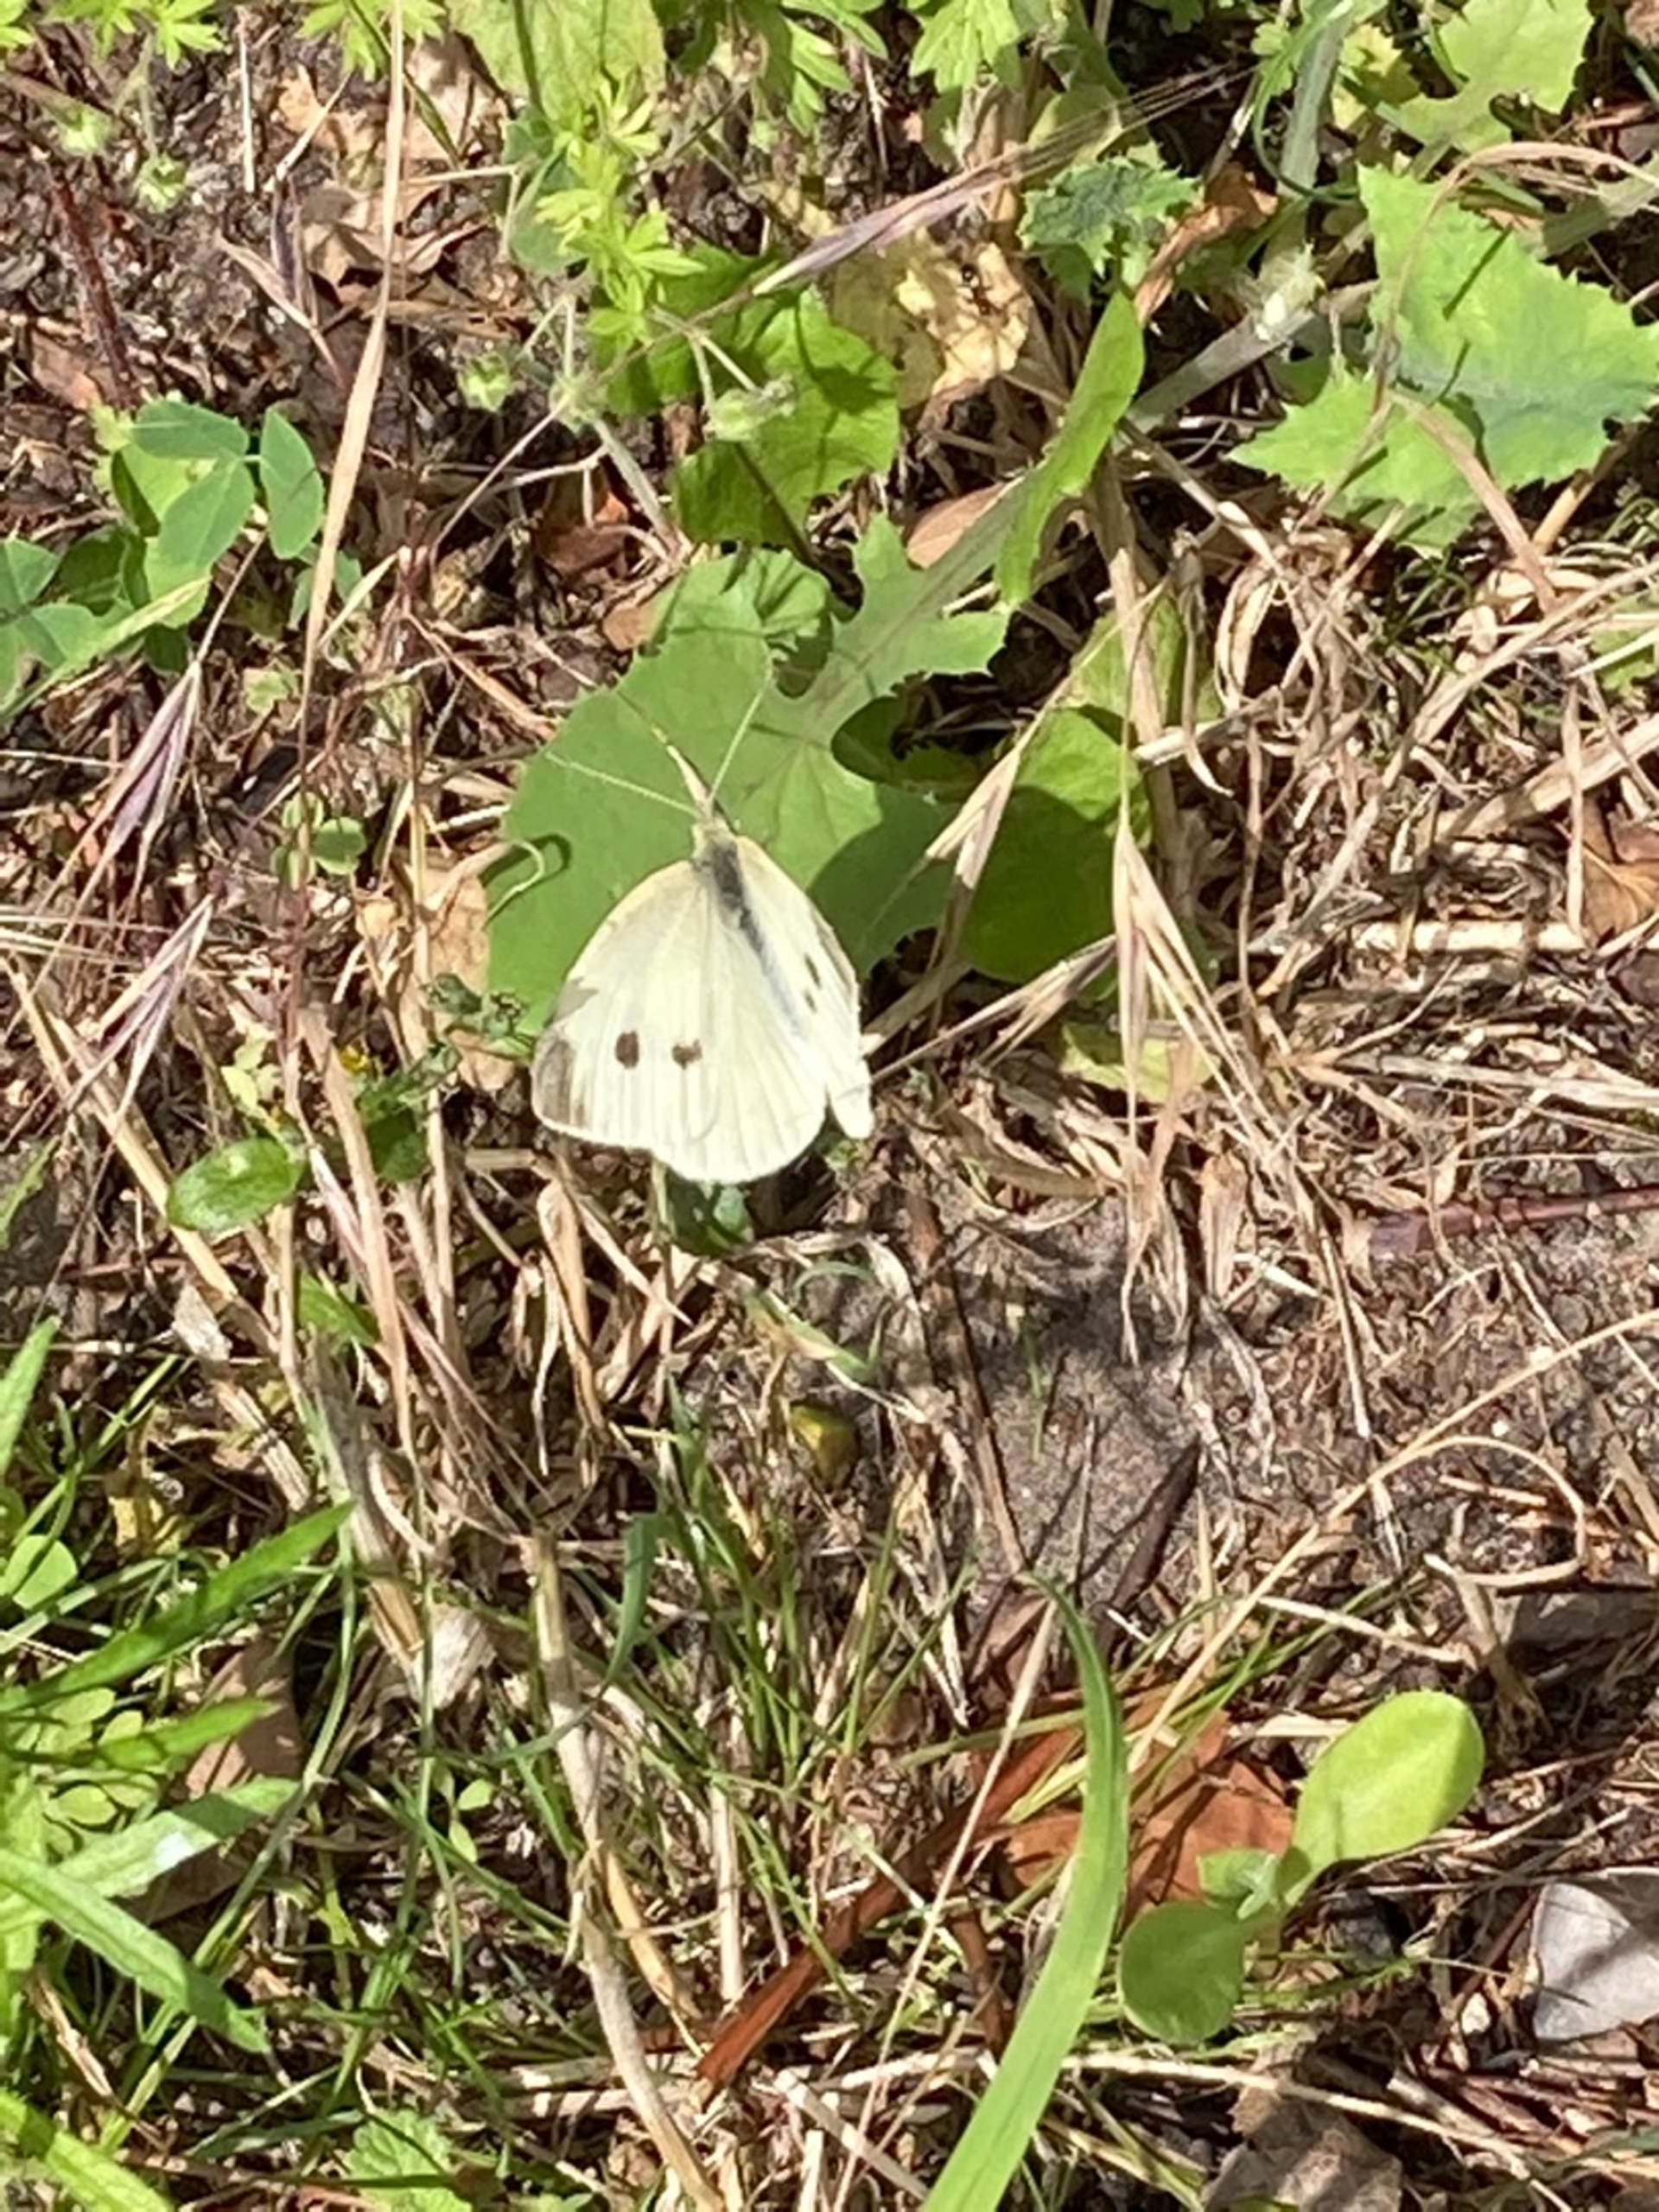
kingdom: Animalia
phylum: Arthropoda
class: Insecta
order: Lepidoptera
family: Pieridae
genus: Pieris
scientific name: Pieris rapae
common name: Lille kålsommerfugl
